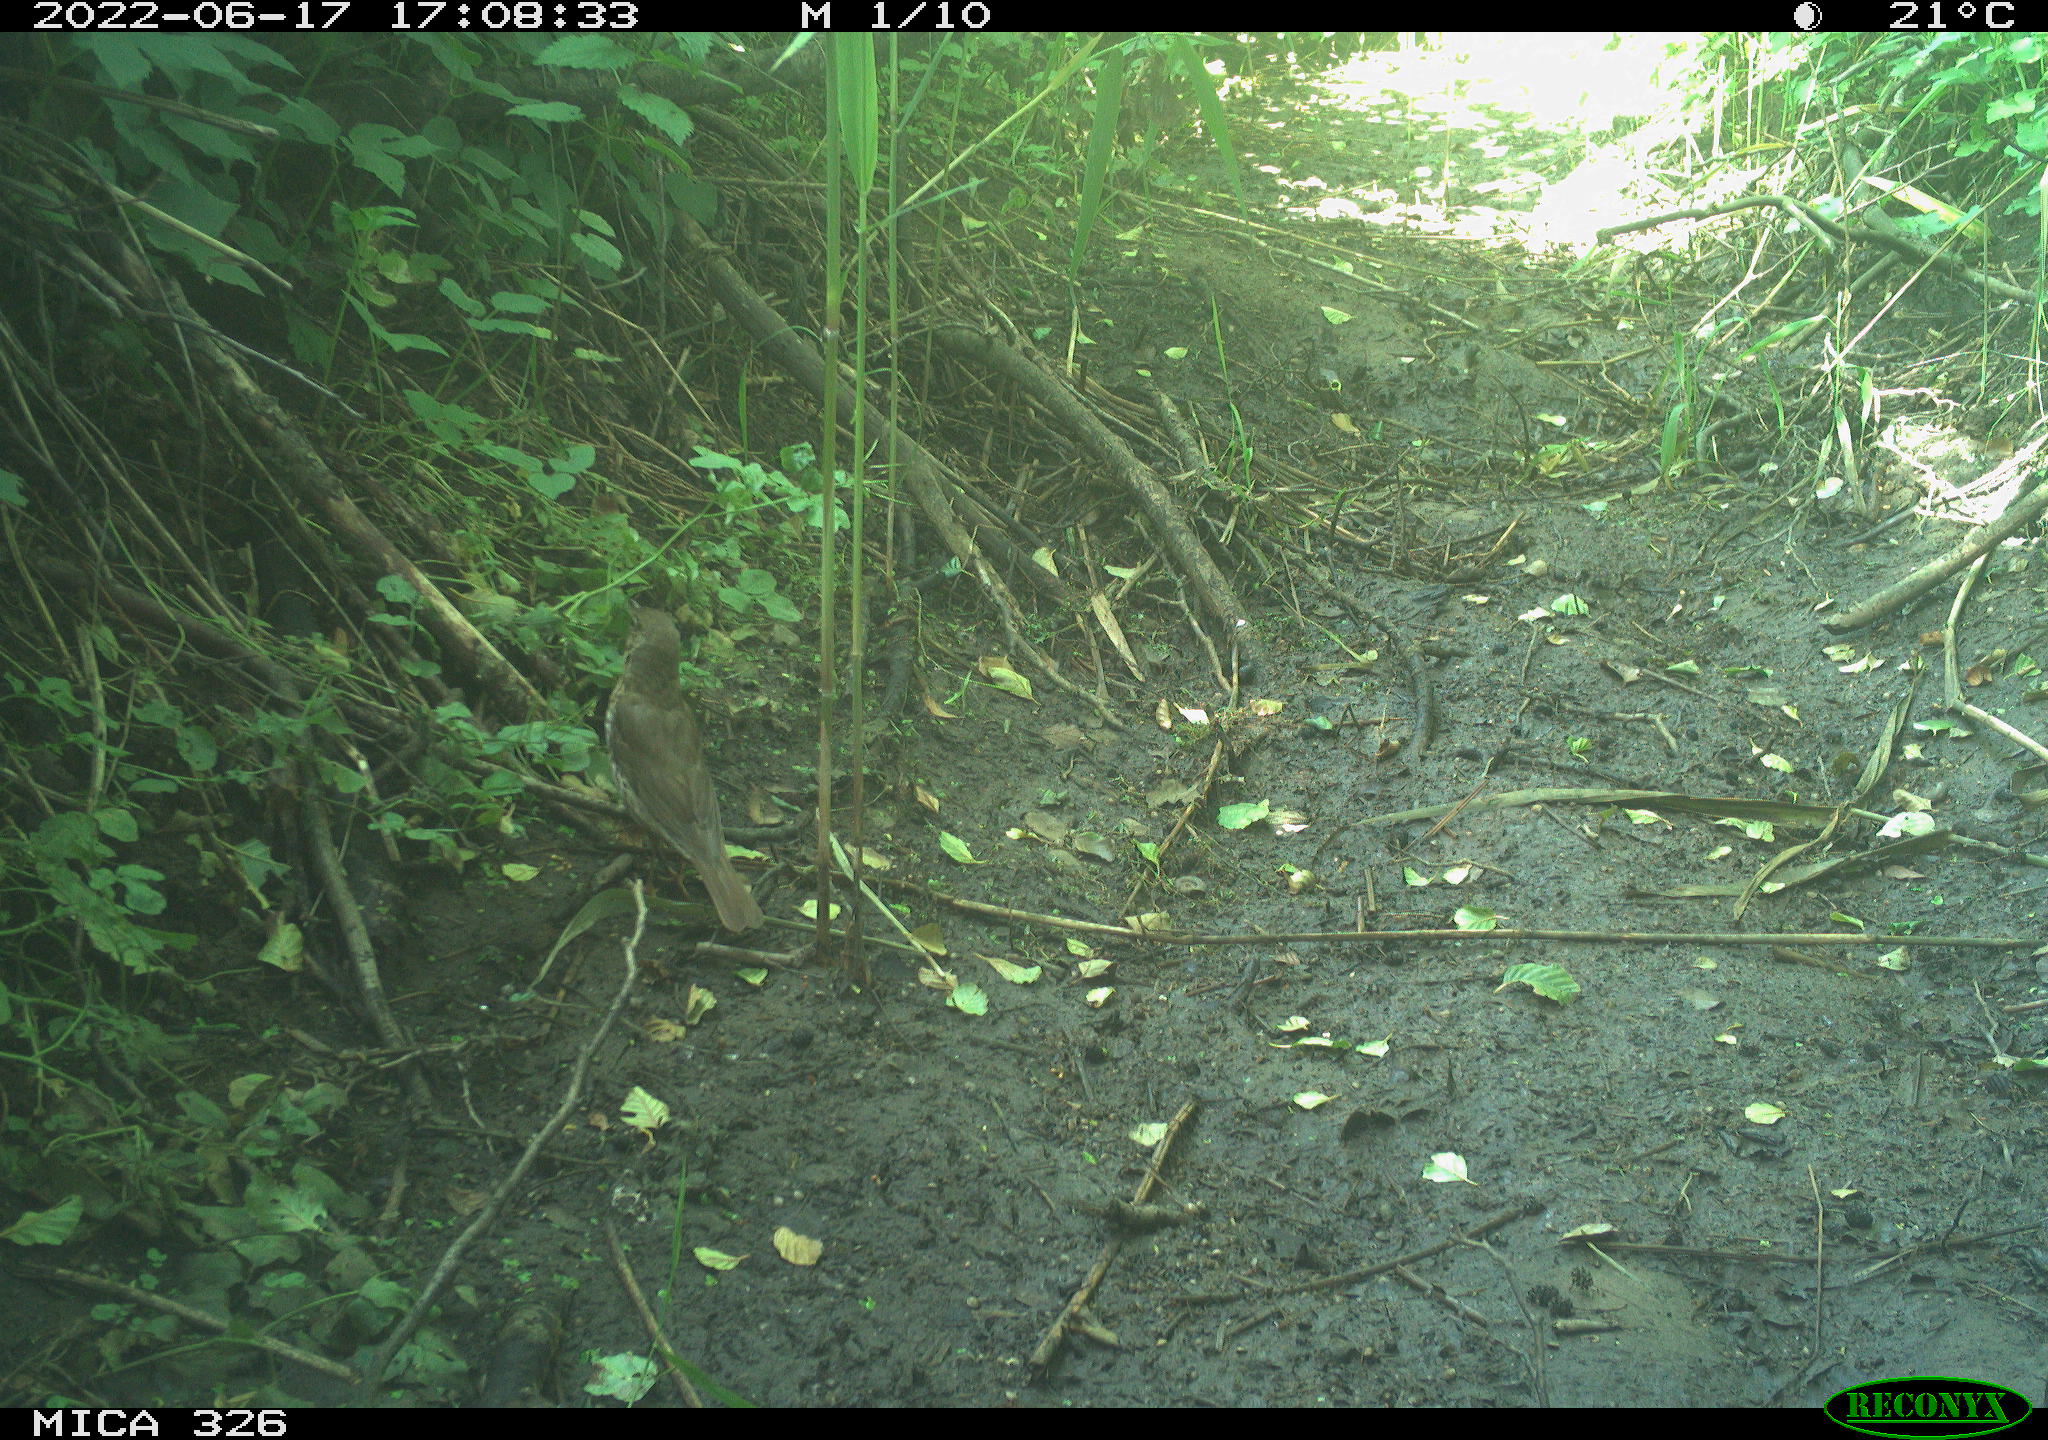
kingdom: Animalia
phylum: Chordata
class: Aves
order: Passeriformes
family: Turdidae
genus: Turdus
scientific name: Turdus philomelos
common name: Song thrush
